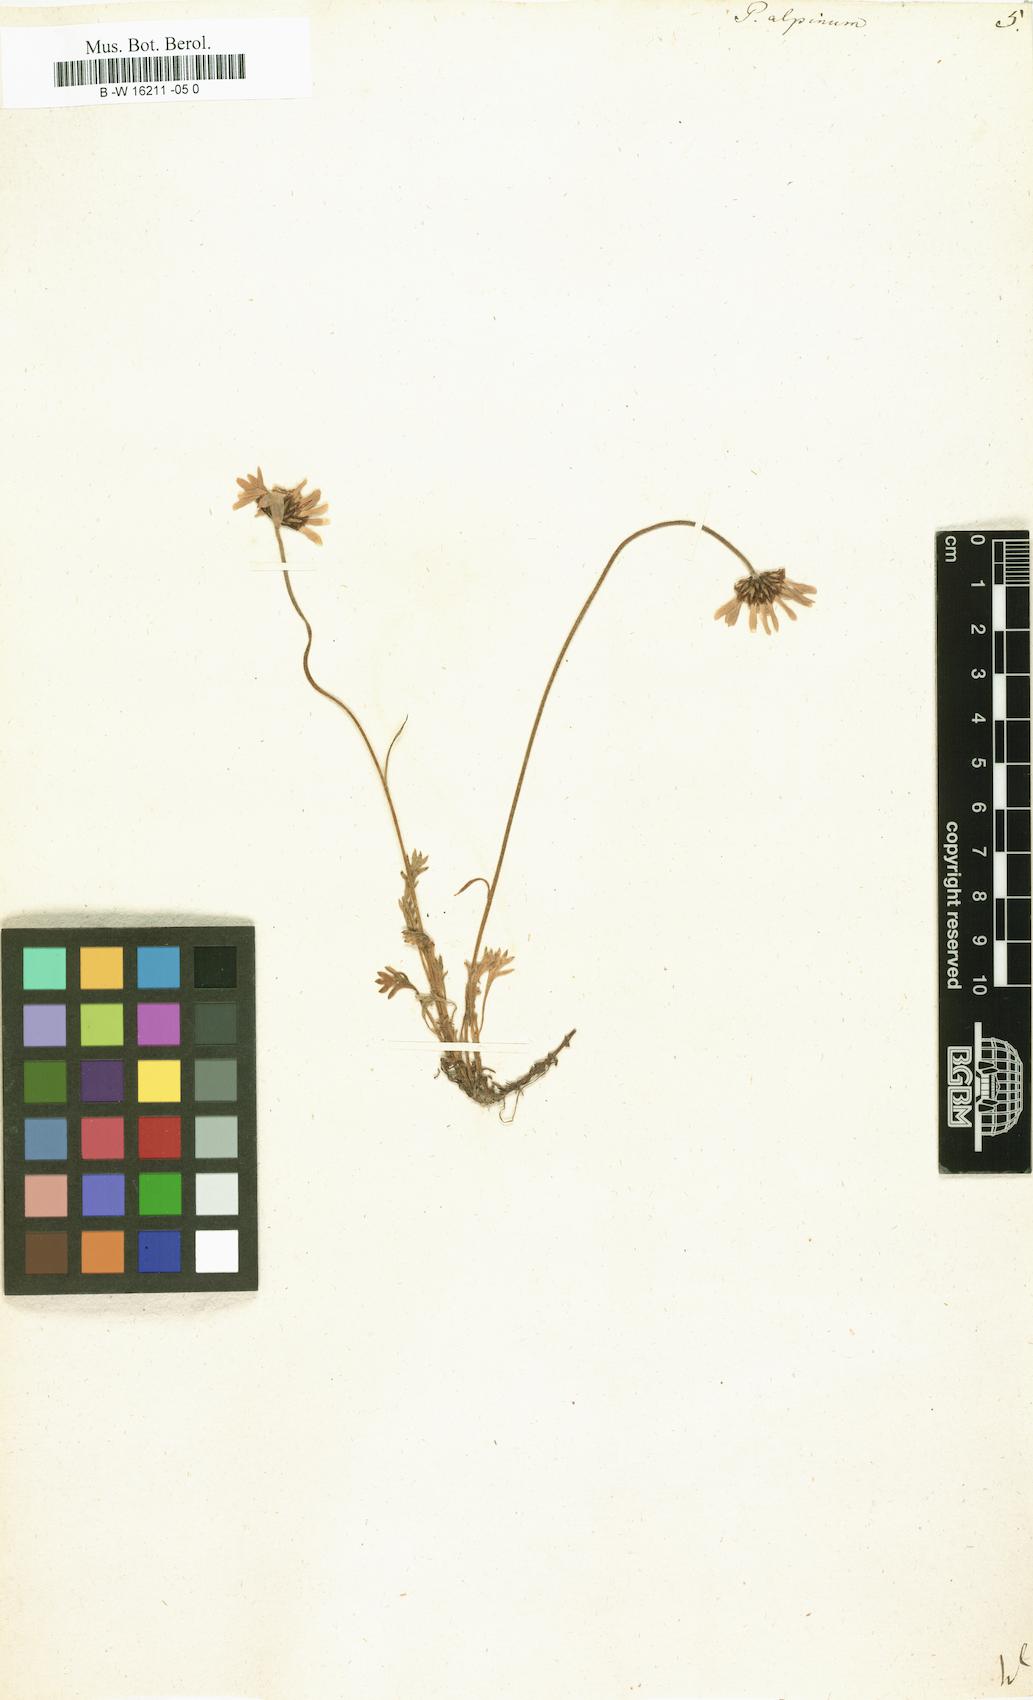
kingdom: Plantae
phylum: Tracheophyta
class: Magnoliopsida
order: Asterales
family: Asteraceae
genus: Tanacetum
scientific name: Tanacetum Pyrethrum alpinum
